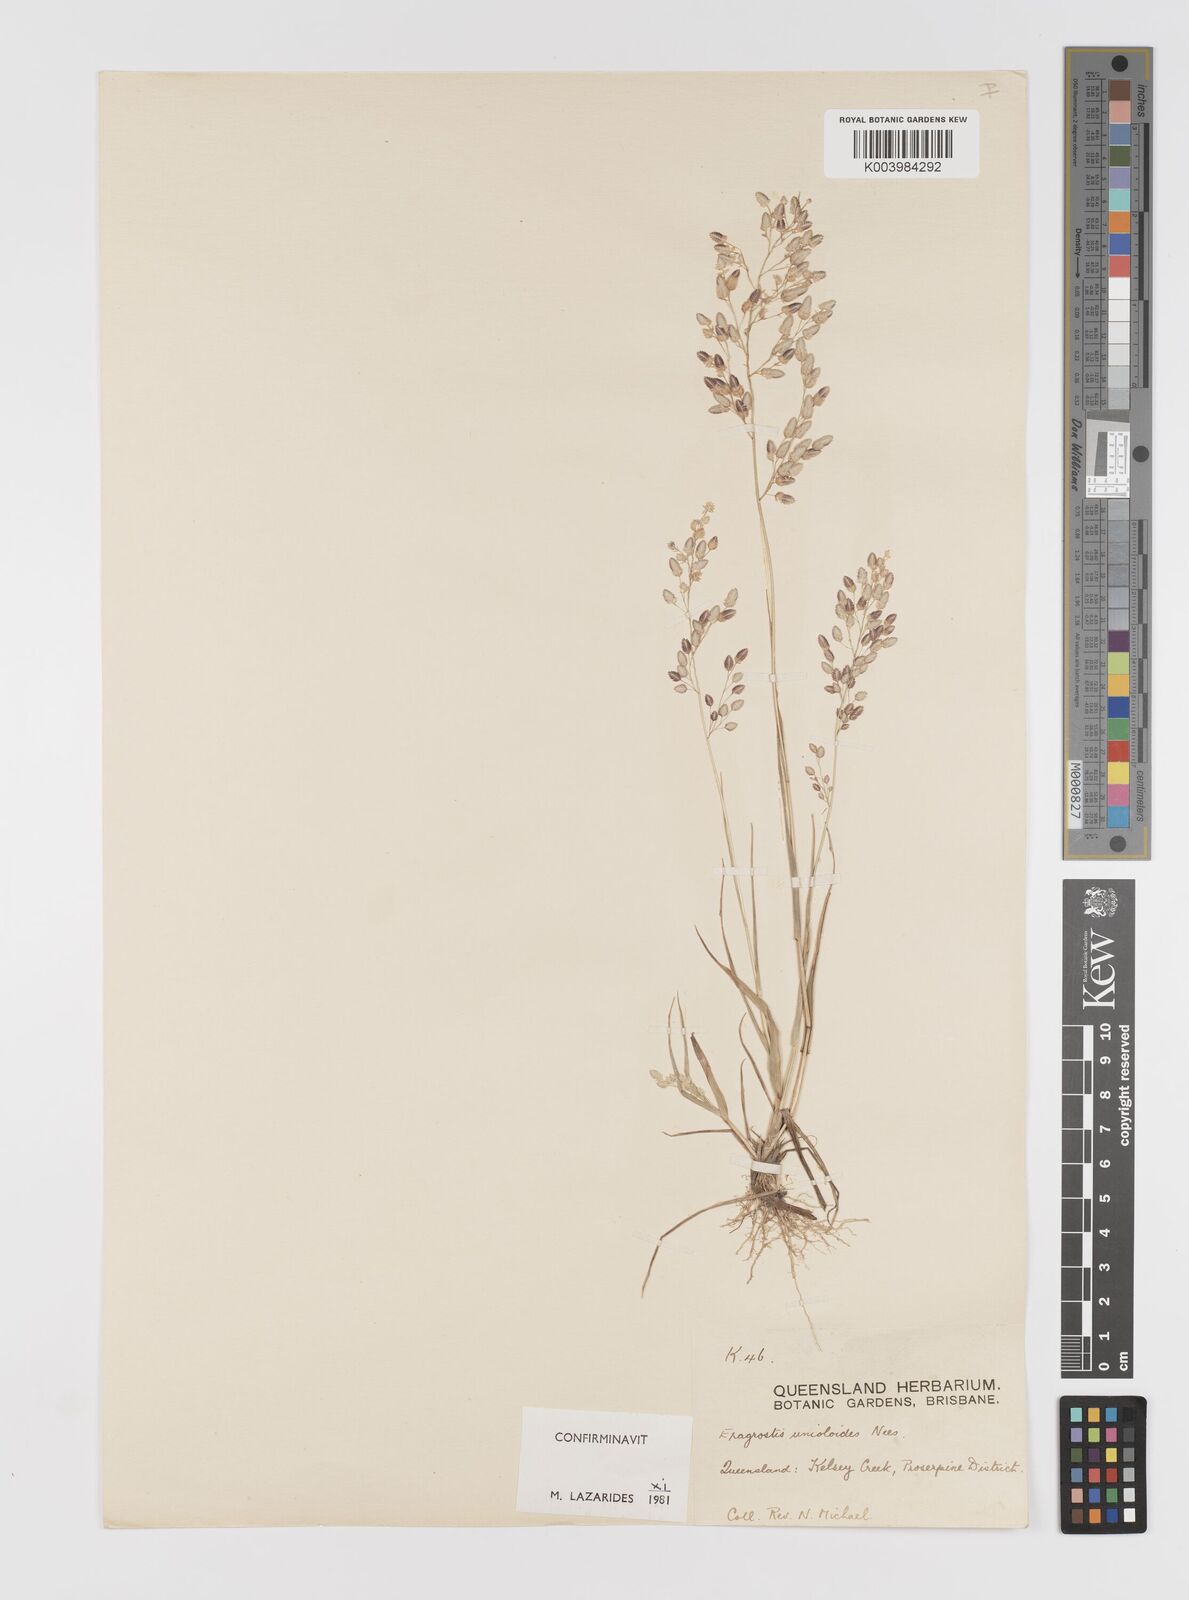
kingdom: Plantae
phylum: Tracheophyta
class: Liliopsida
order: Poales
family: Poaceae
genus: Eragrostis
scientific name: Eragrostis unioloides
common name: Chinese lovegrass
